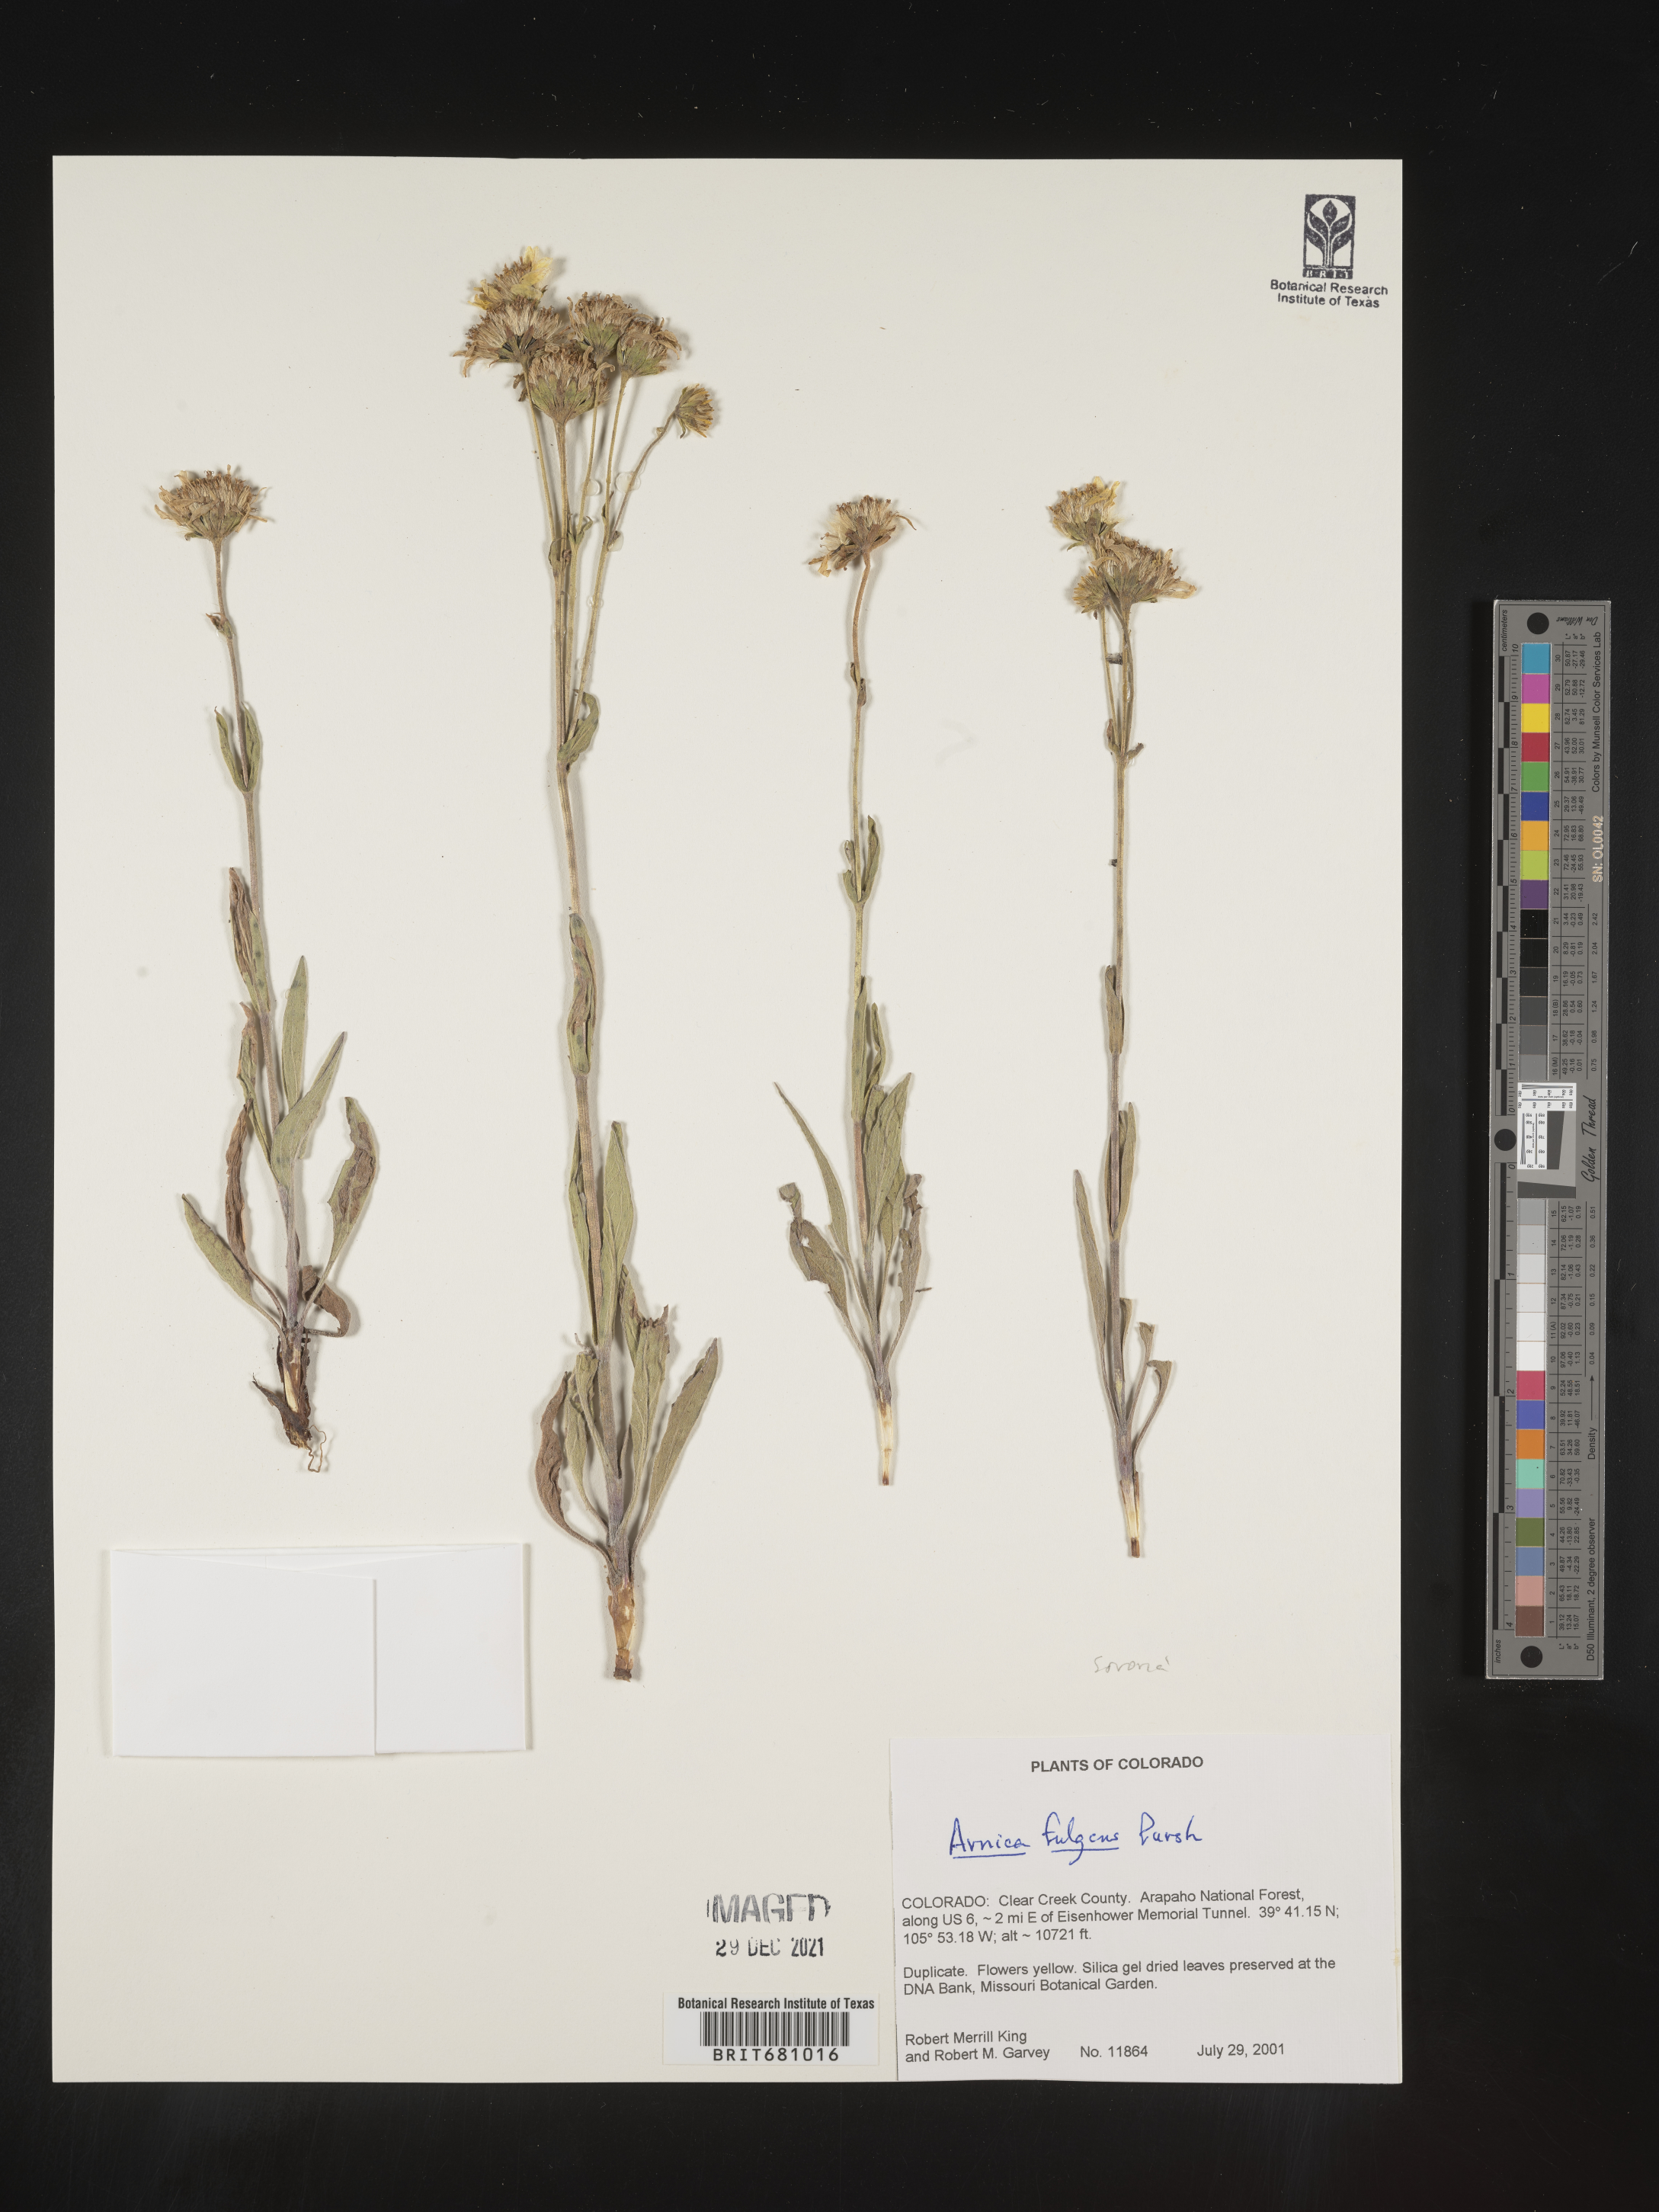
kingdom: Plantae
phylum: Tracheophyta
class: Magnoliopsida
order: Asterales
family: Asteraceae
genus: Arnica
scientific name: Arnica fulgens
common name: Foothill arnica
